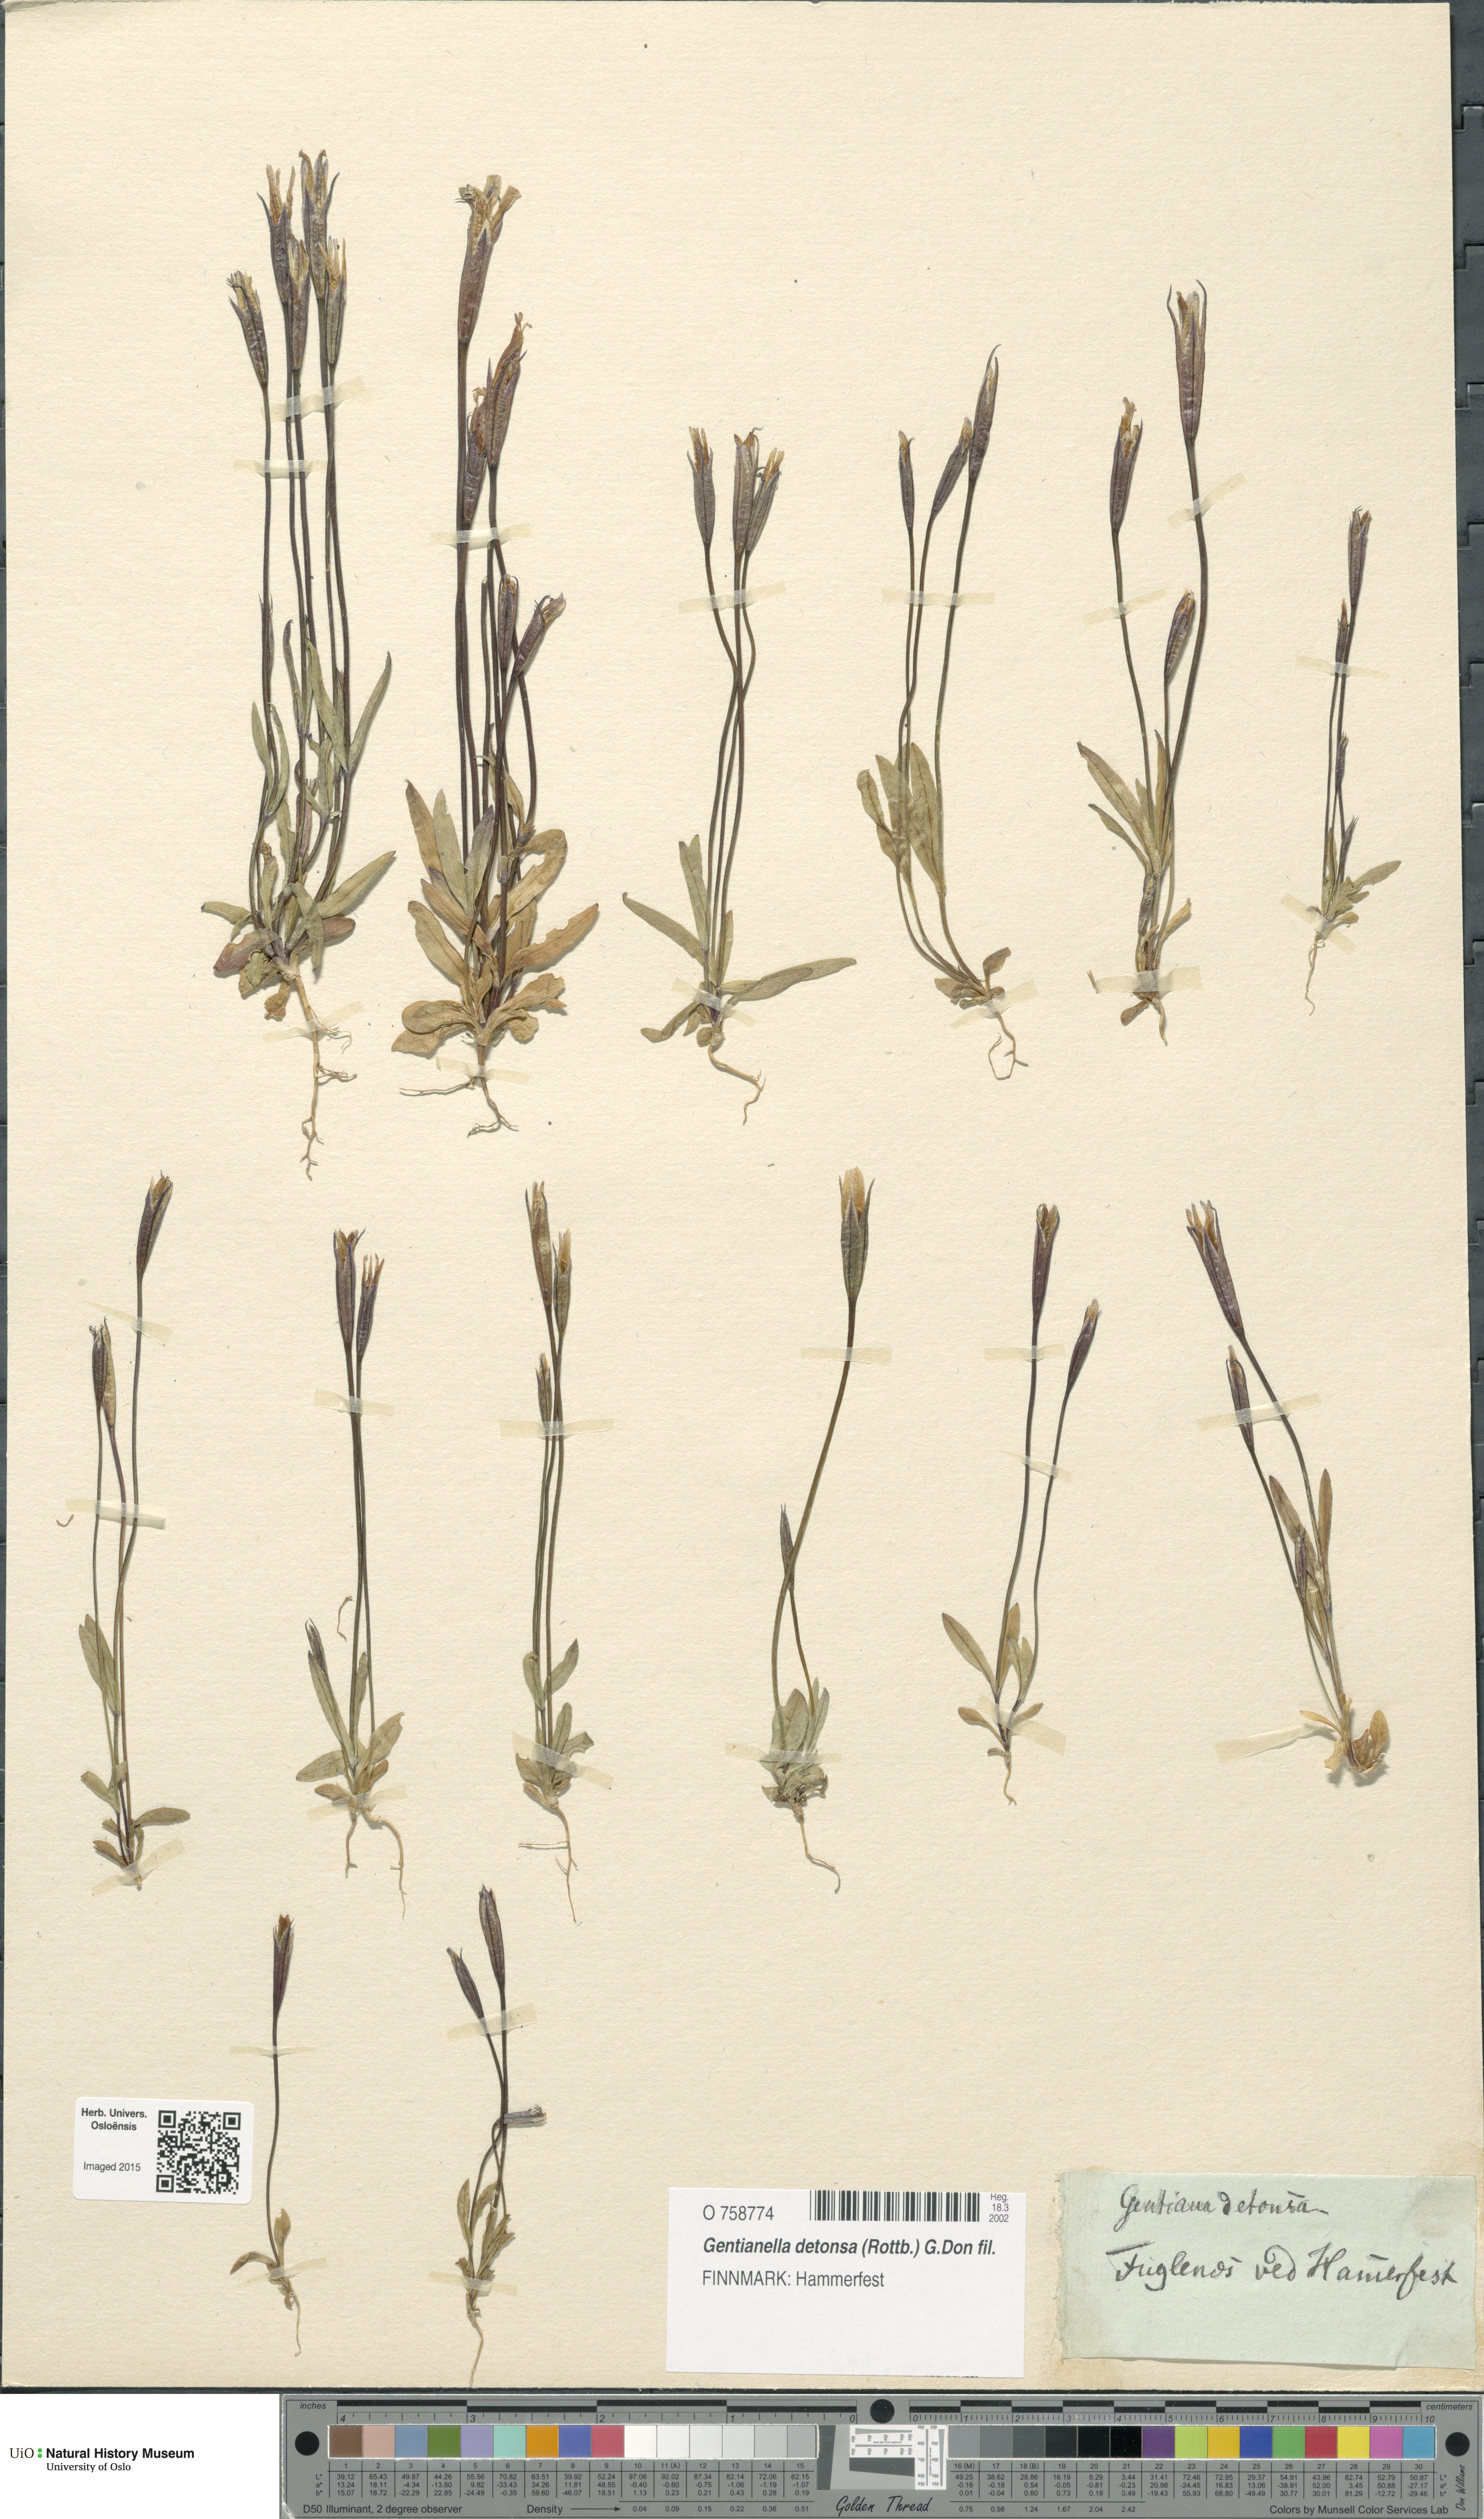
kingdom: Plantae
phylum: Tracheophyta
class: Magnoliopsida
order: Gentianales
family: Gentianaceae
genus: Gentianopsis
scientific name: Gentianopsis detonsa
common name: Fringed-gentian
